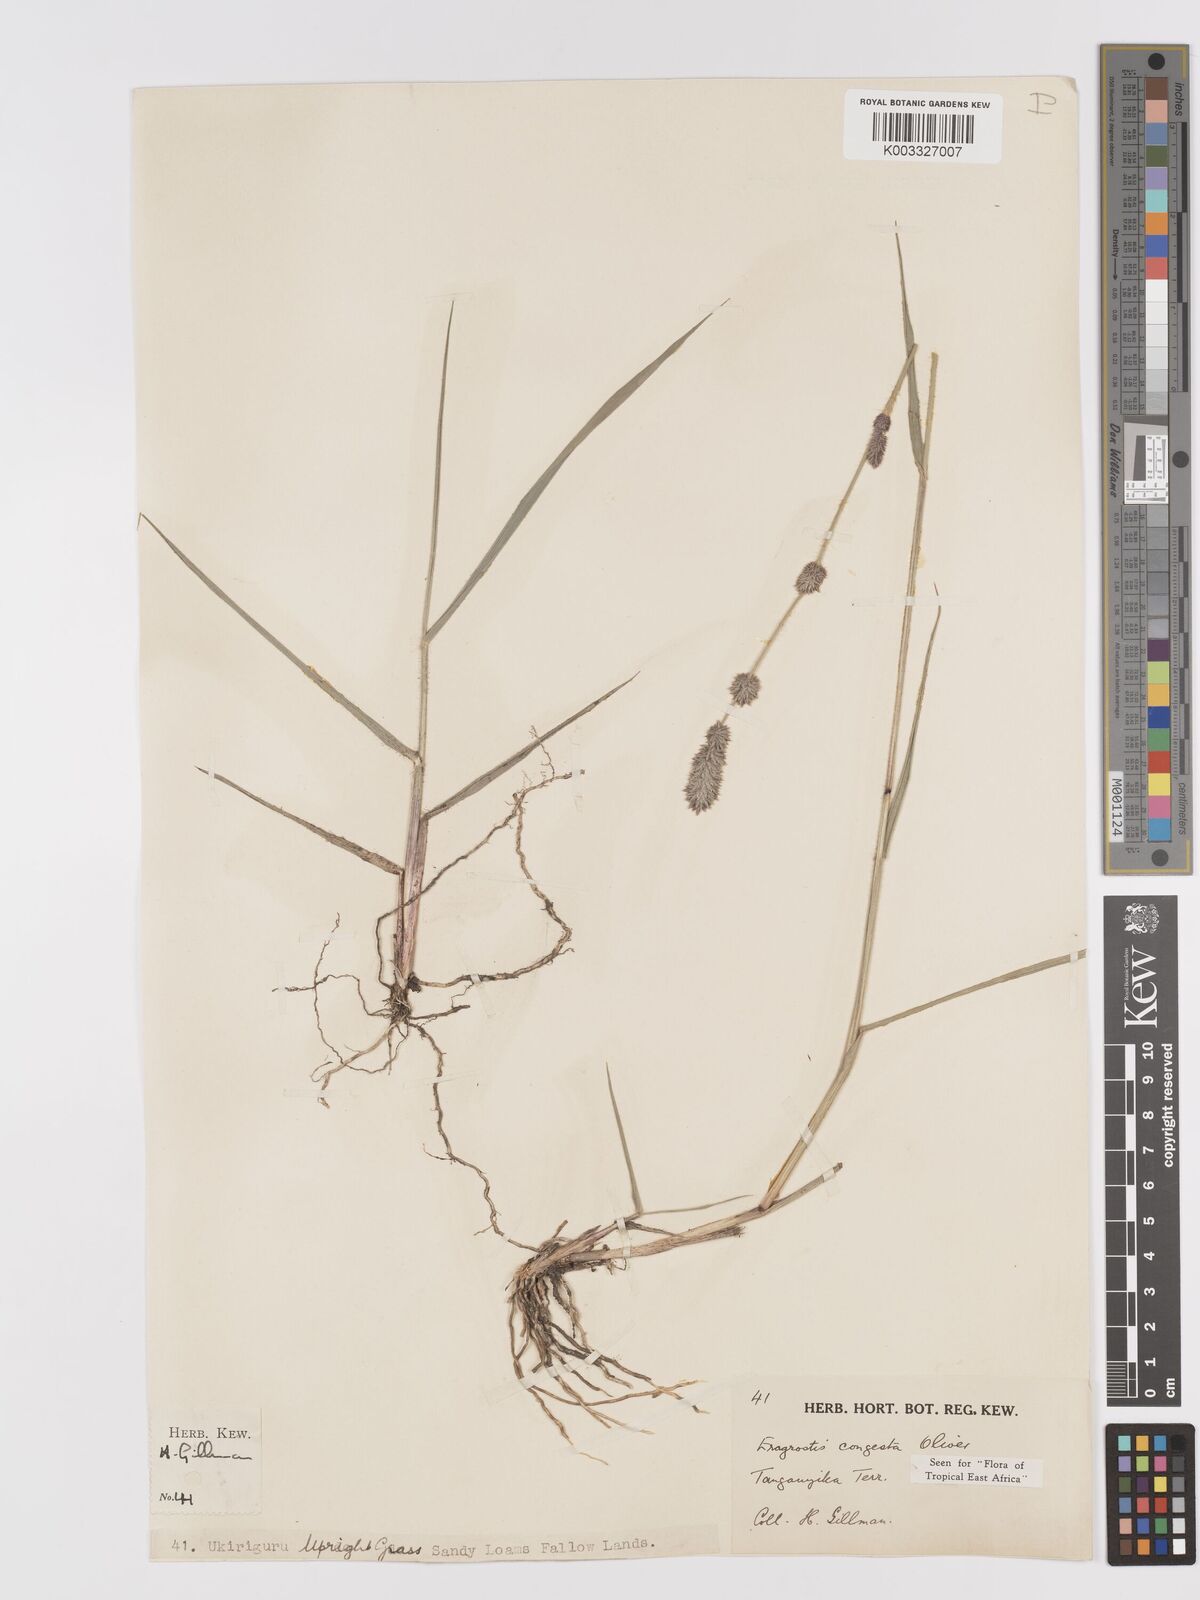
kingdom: Plantae
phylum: Tracheophyta
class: Liliopsida
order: Poales
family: Poaceae
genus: Eragrostis
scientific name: Eragrostis congesta
